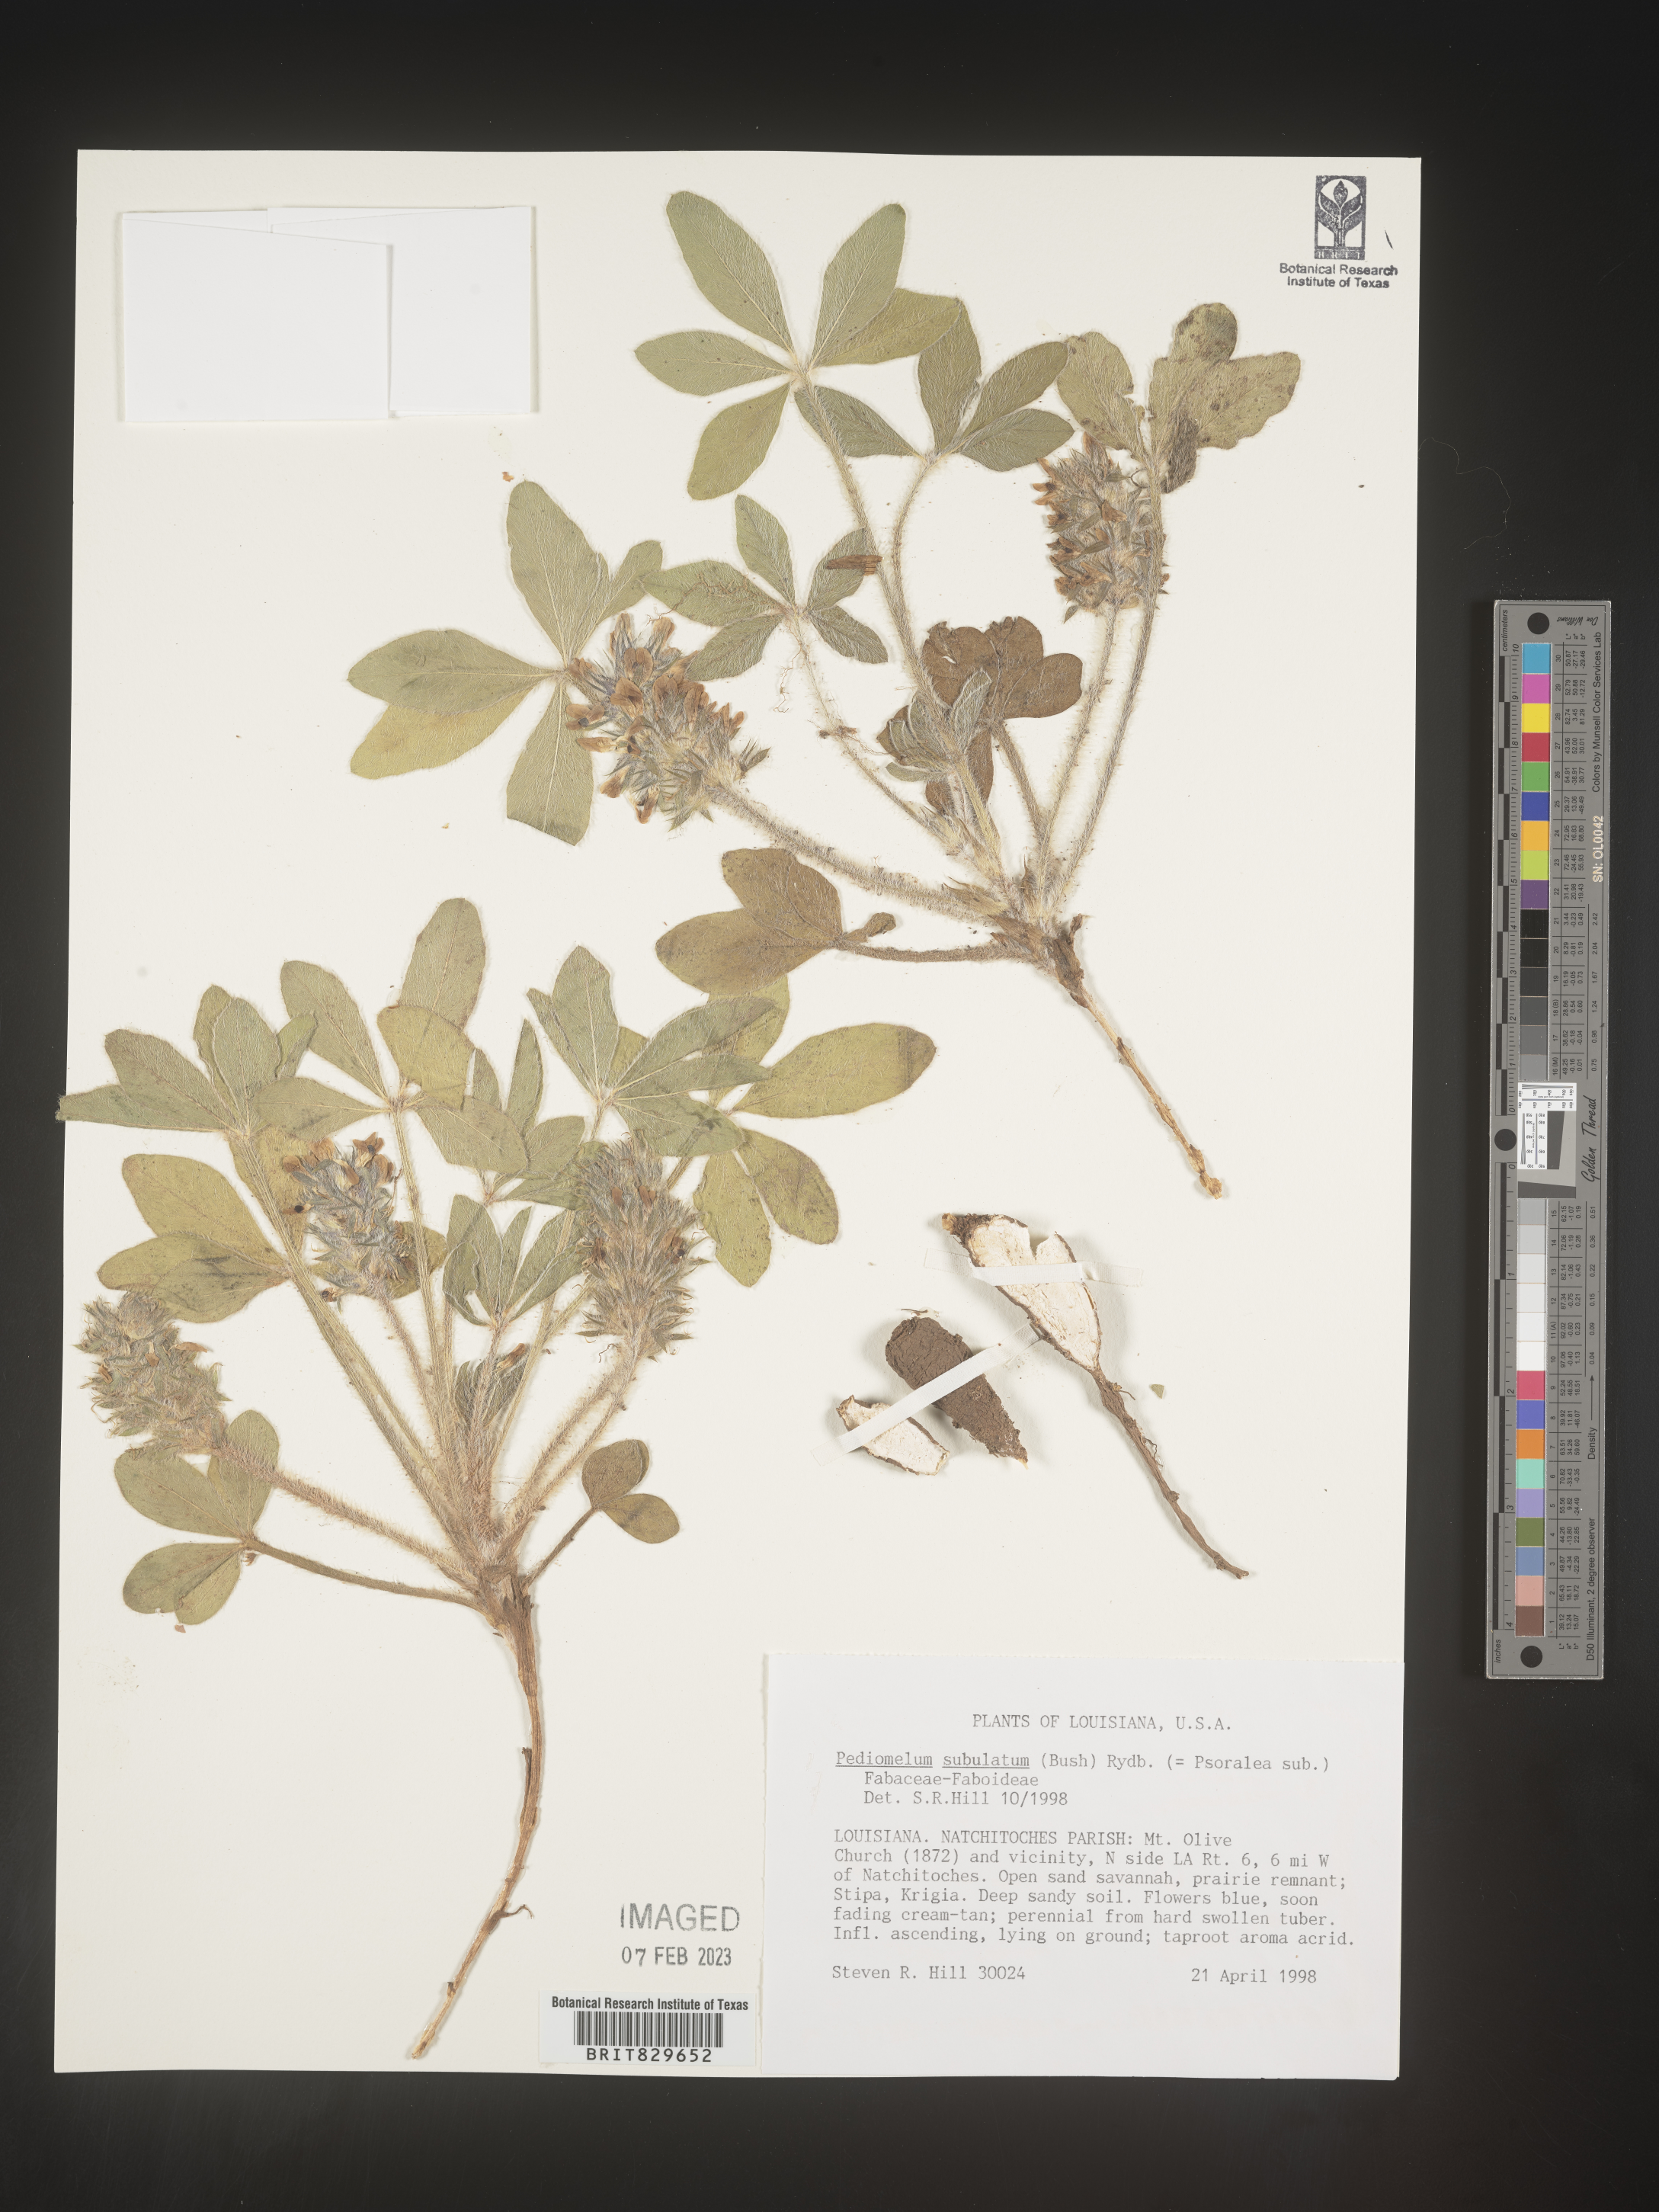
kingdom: Plantae
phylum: Tracheophyta
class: Magnoliopsida
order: Fabales
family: Fabaceae
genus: Psoralea
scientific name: Psoralea
